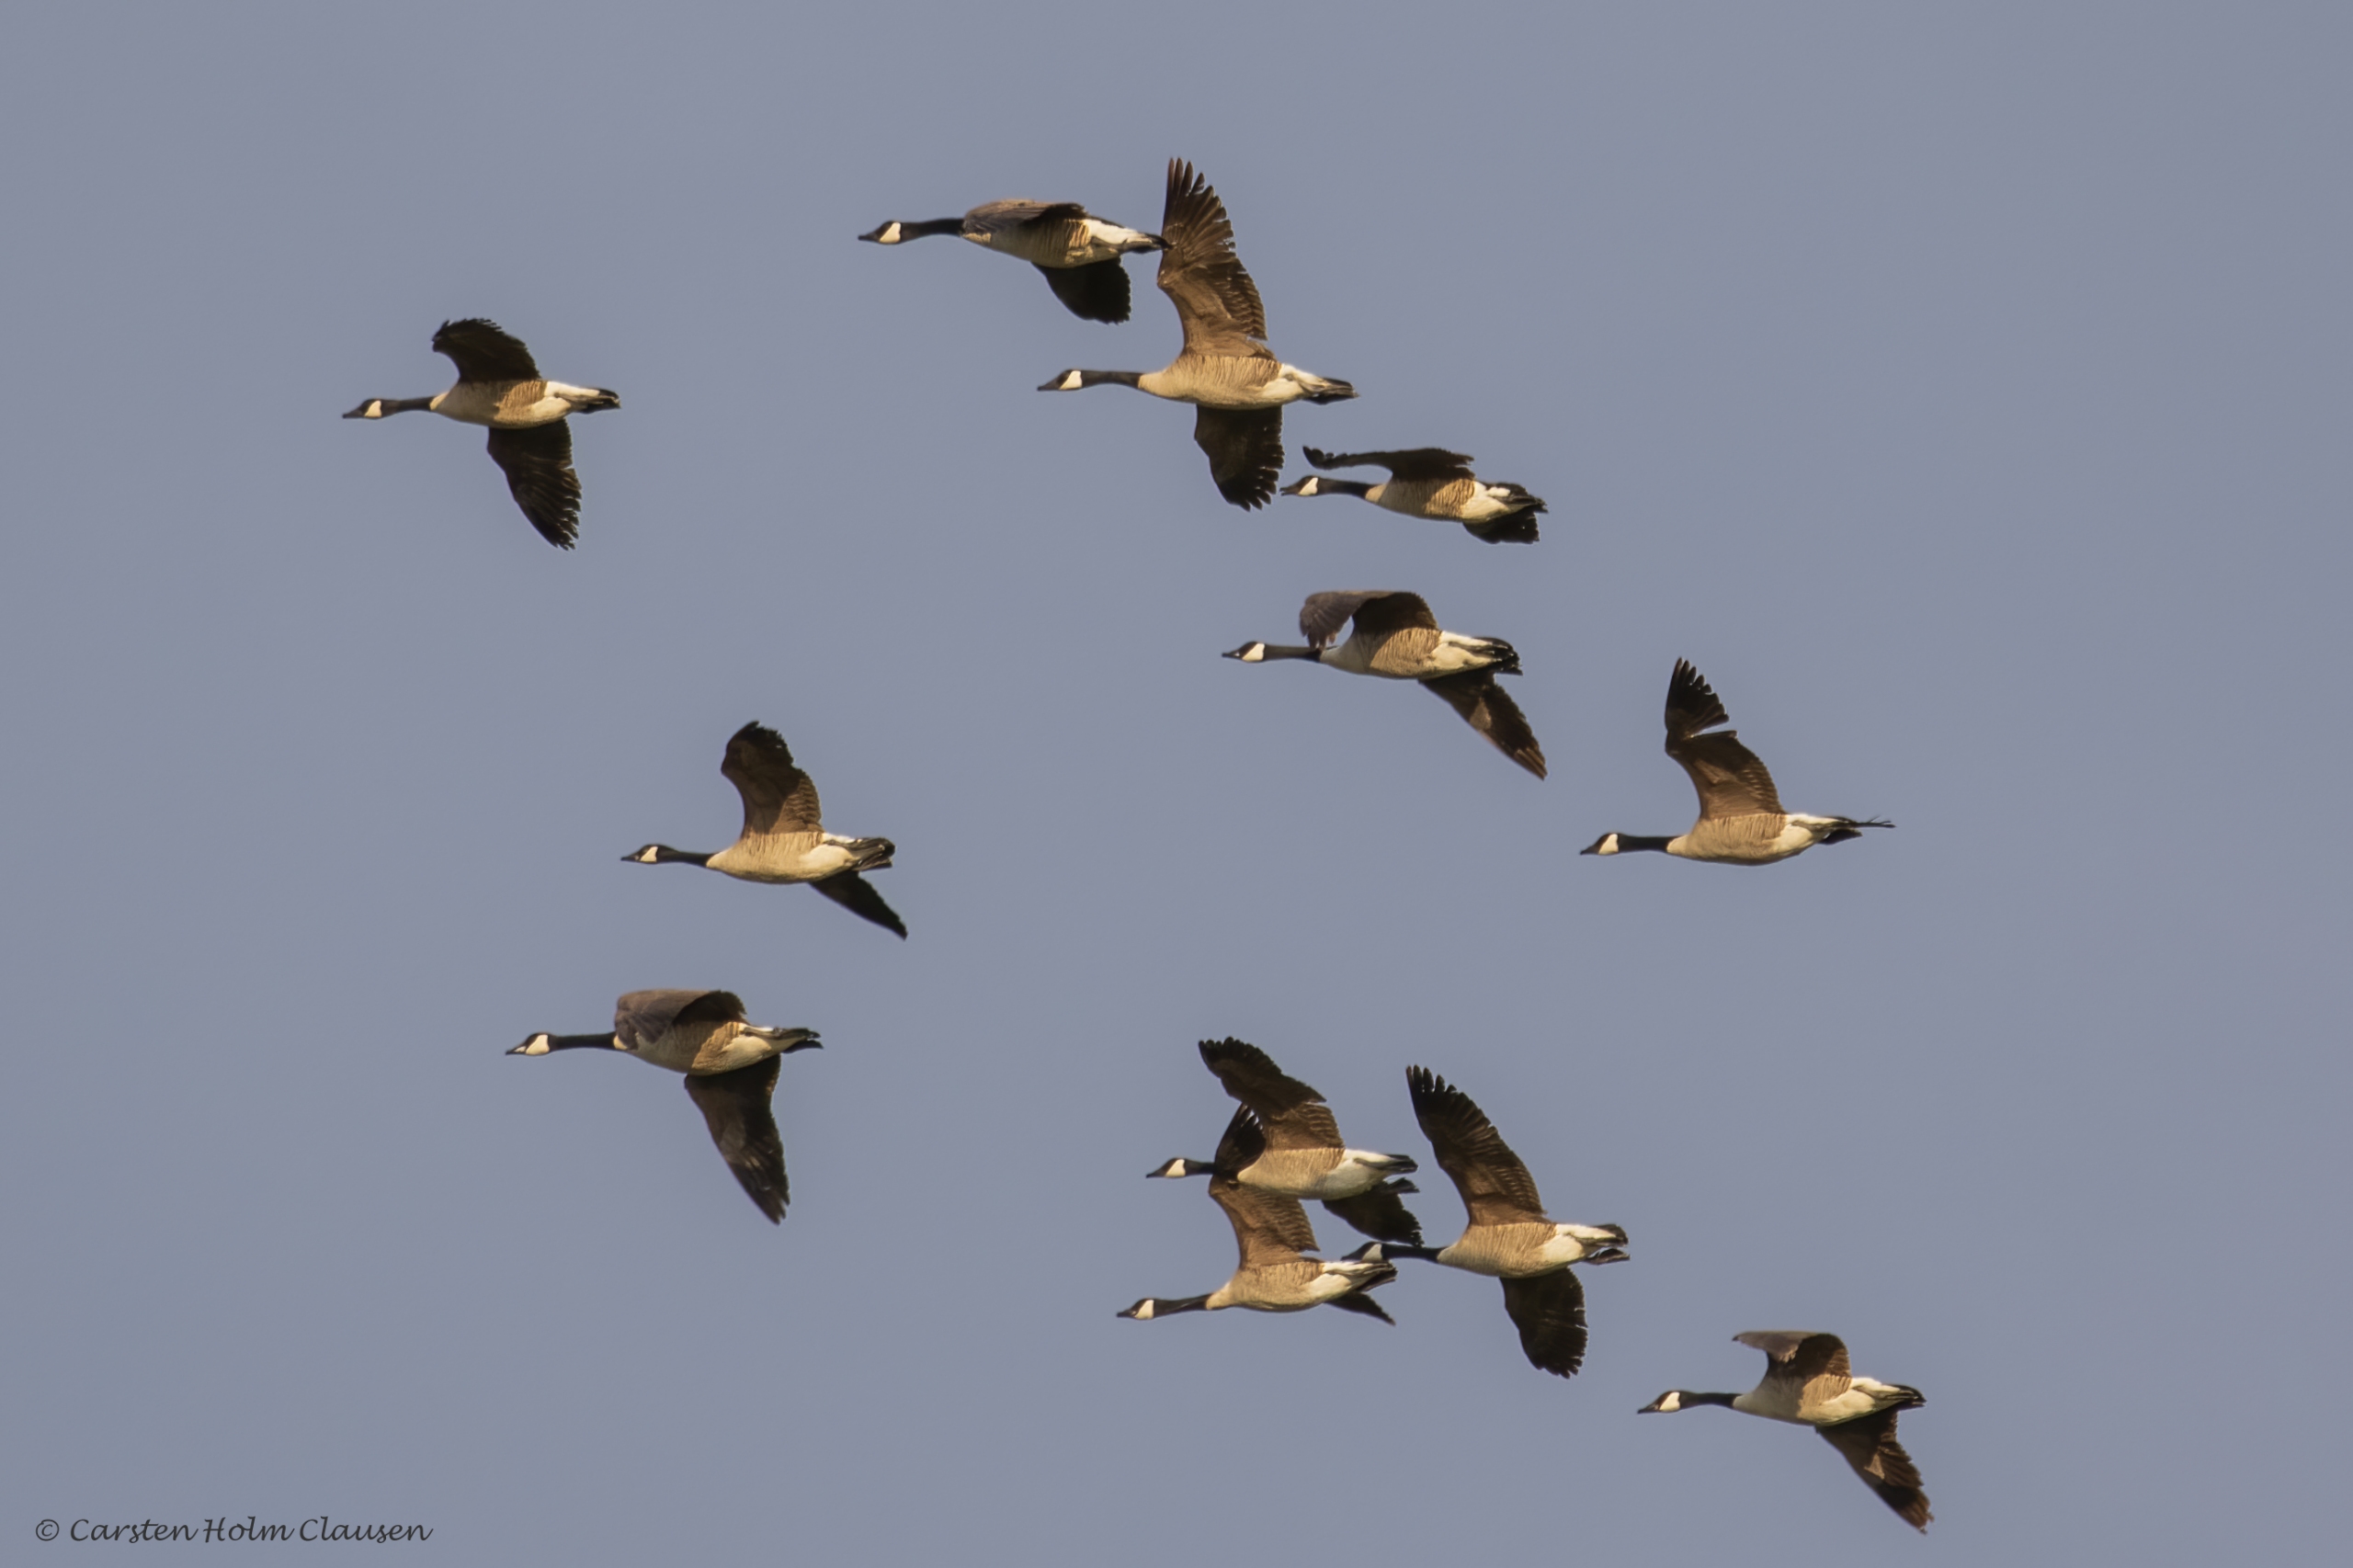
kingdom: Animalia
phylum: Chordata
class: Aves
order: Anseriformes
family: Anatidae
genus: Branta
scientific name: Branta canadensis
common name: Canadagås
